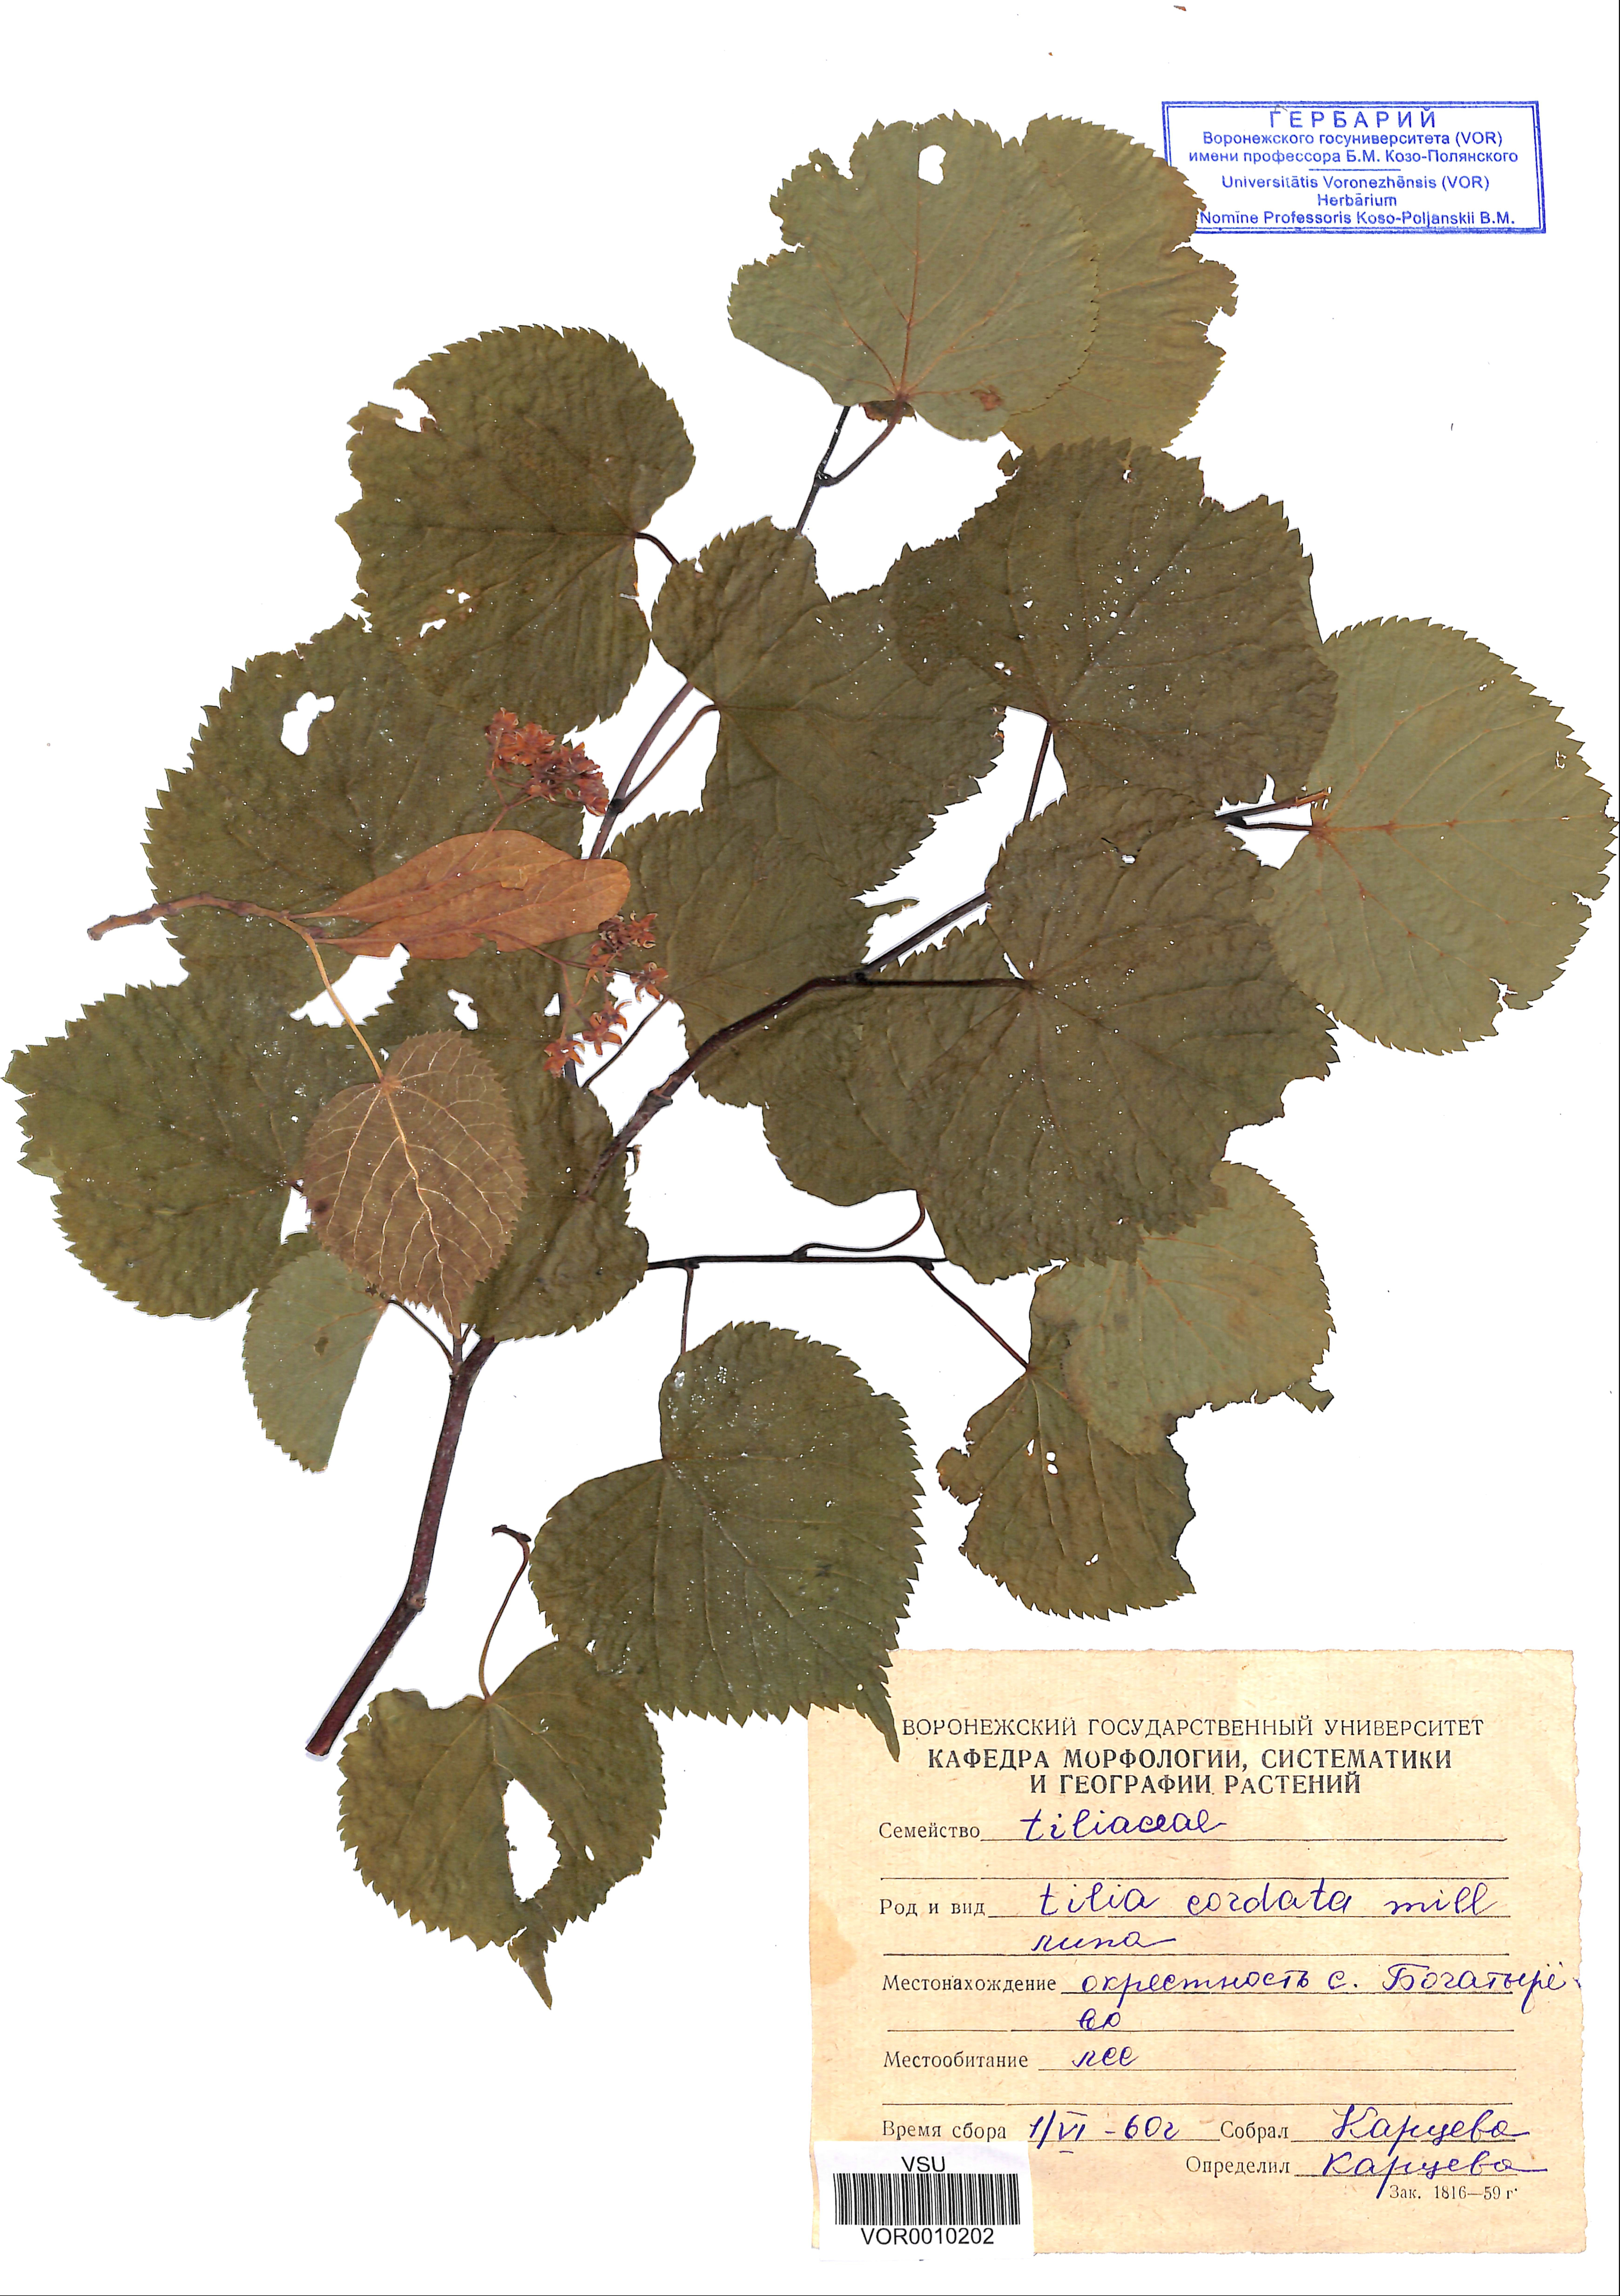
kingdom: Plantae
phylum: Tracheophyta
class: Magnoliopsida
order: Malvales
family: Malvaceae
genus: Tilia
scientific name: Tilia cordata
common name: Small-leaved lime
